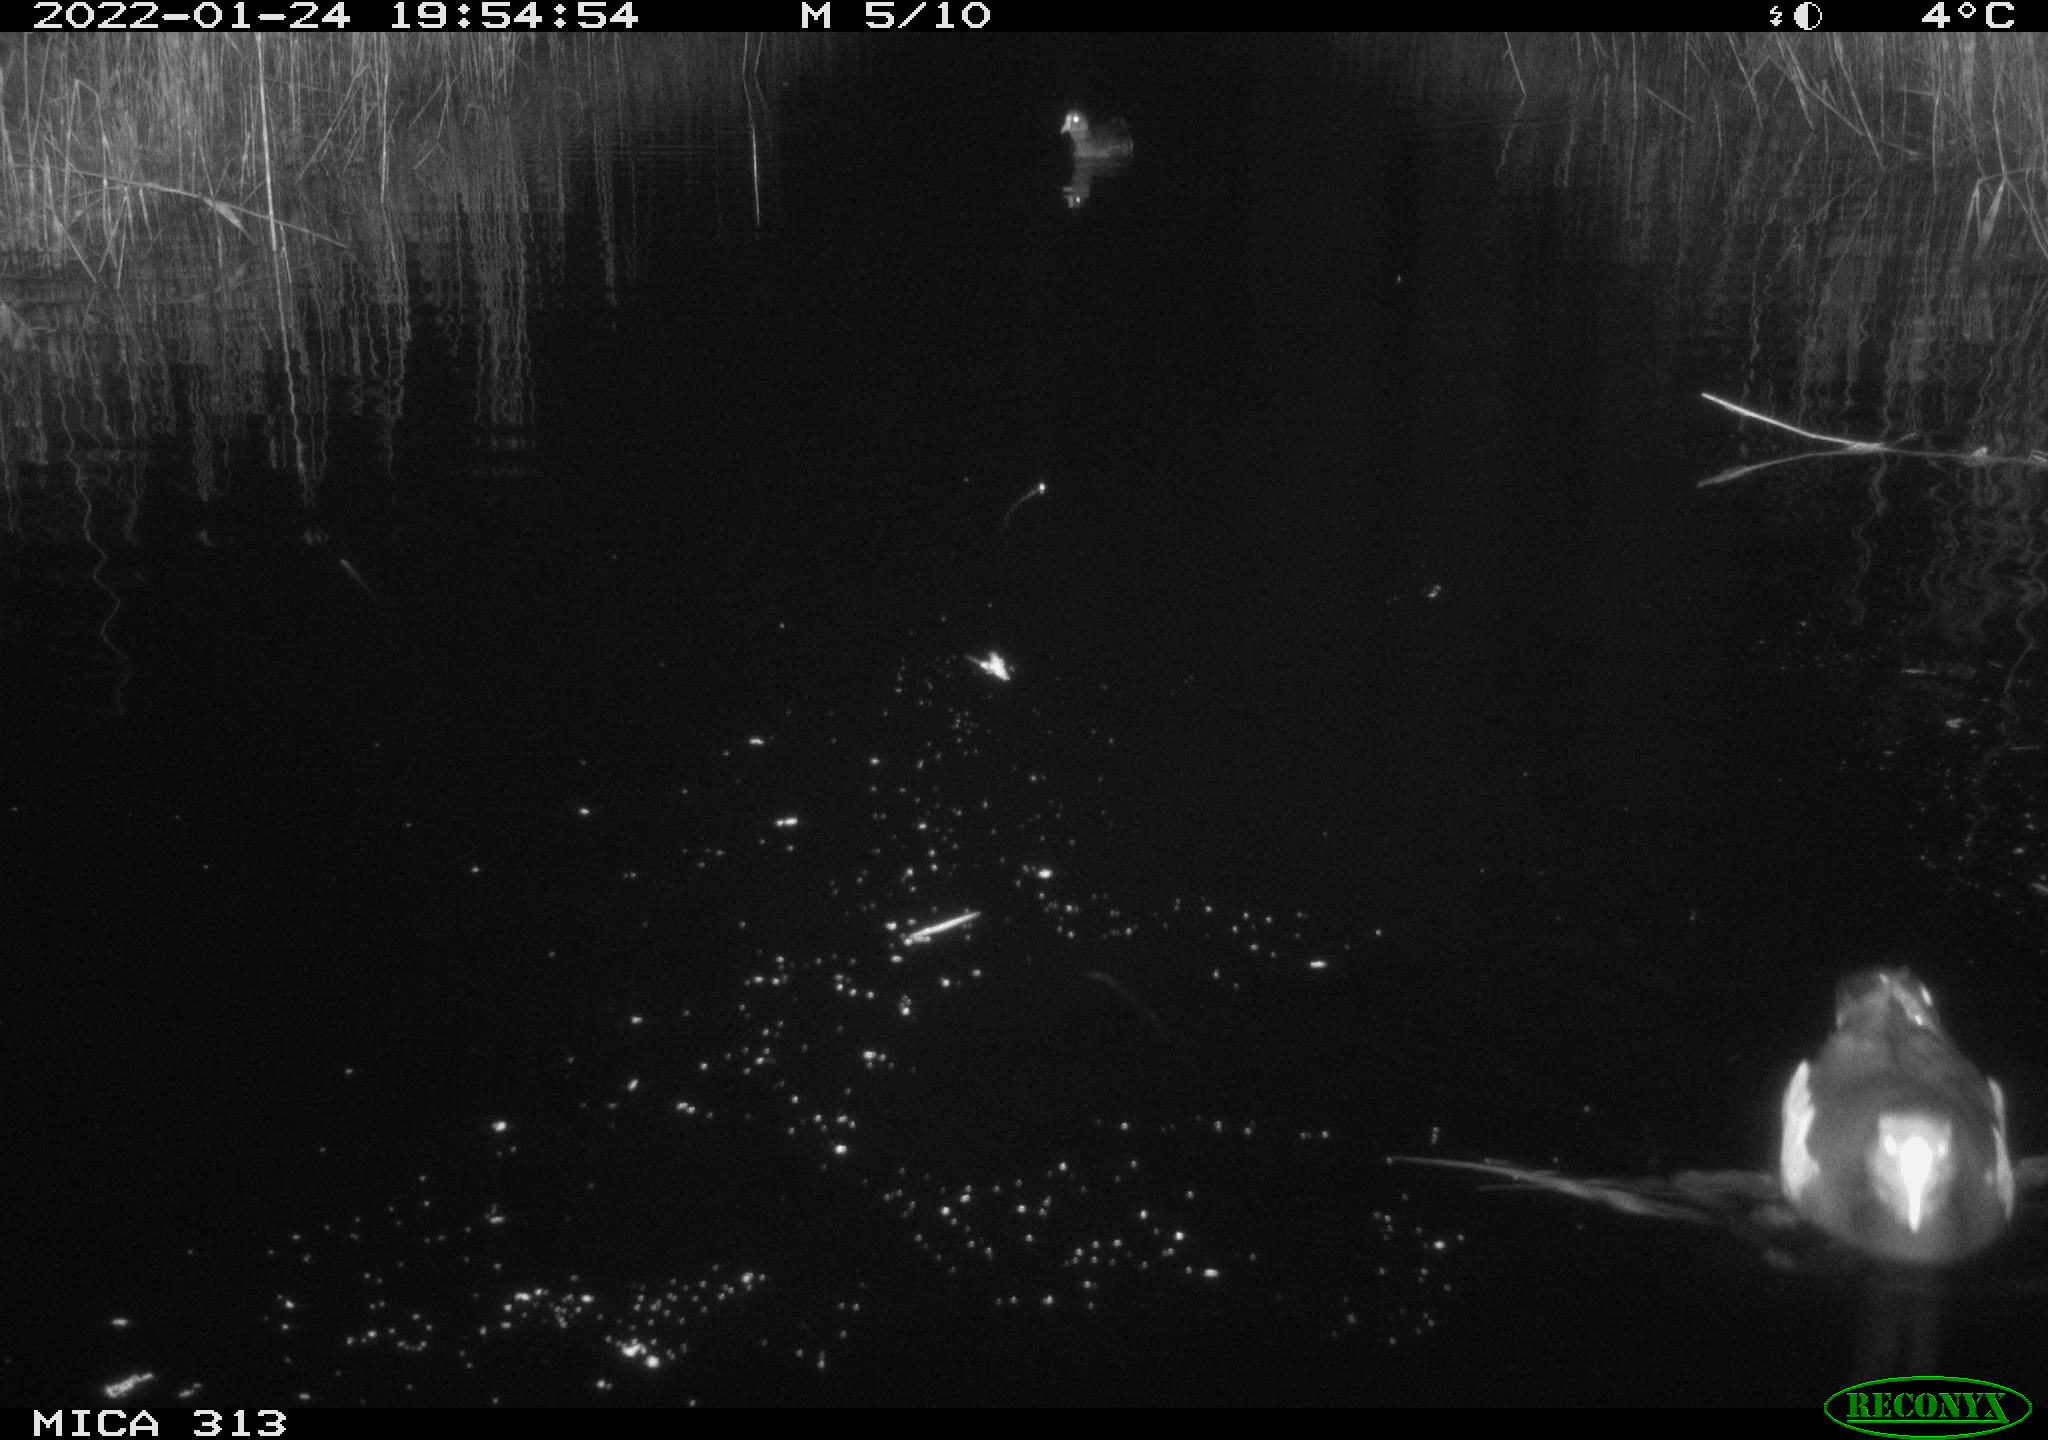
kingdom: Animalia
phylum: Chordata
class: Aves
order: Anseriformes
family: Anatidae
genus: Anas
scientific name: Anas
